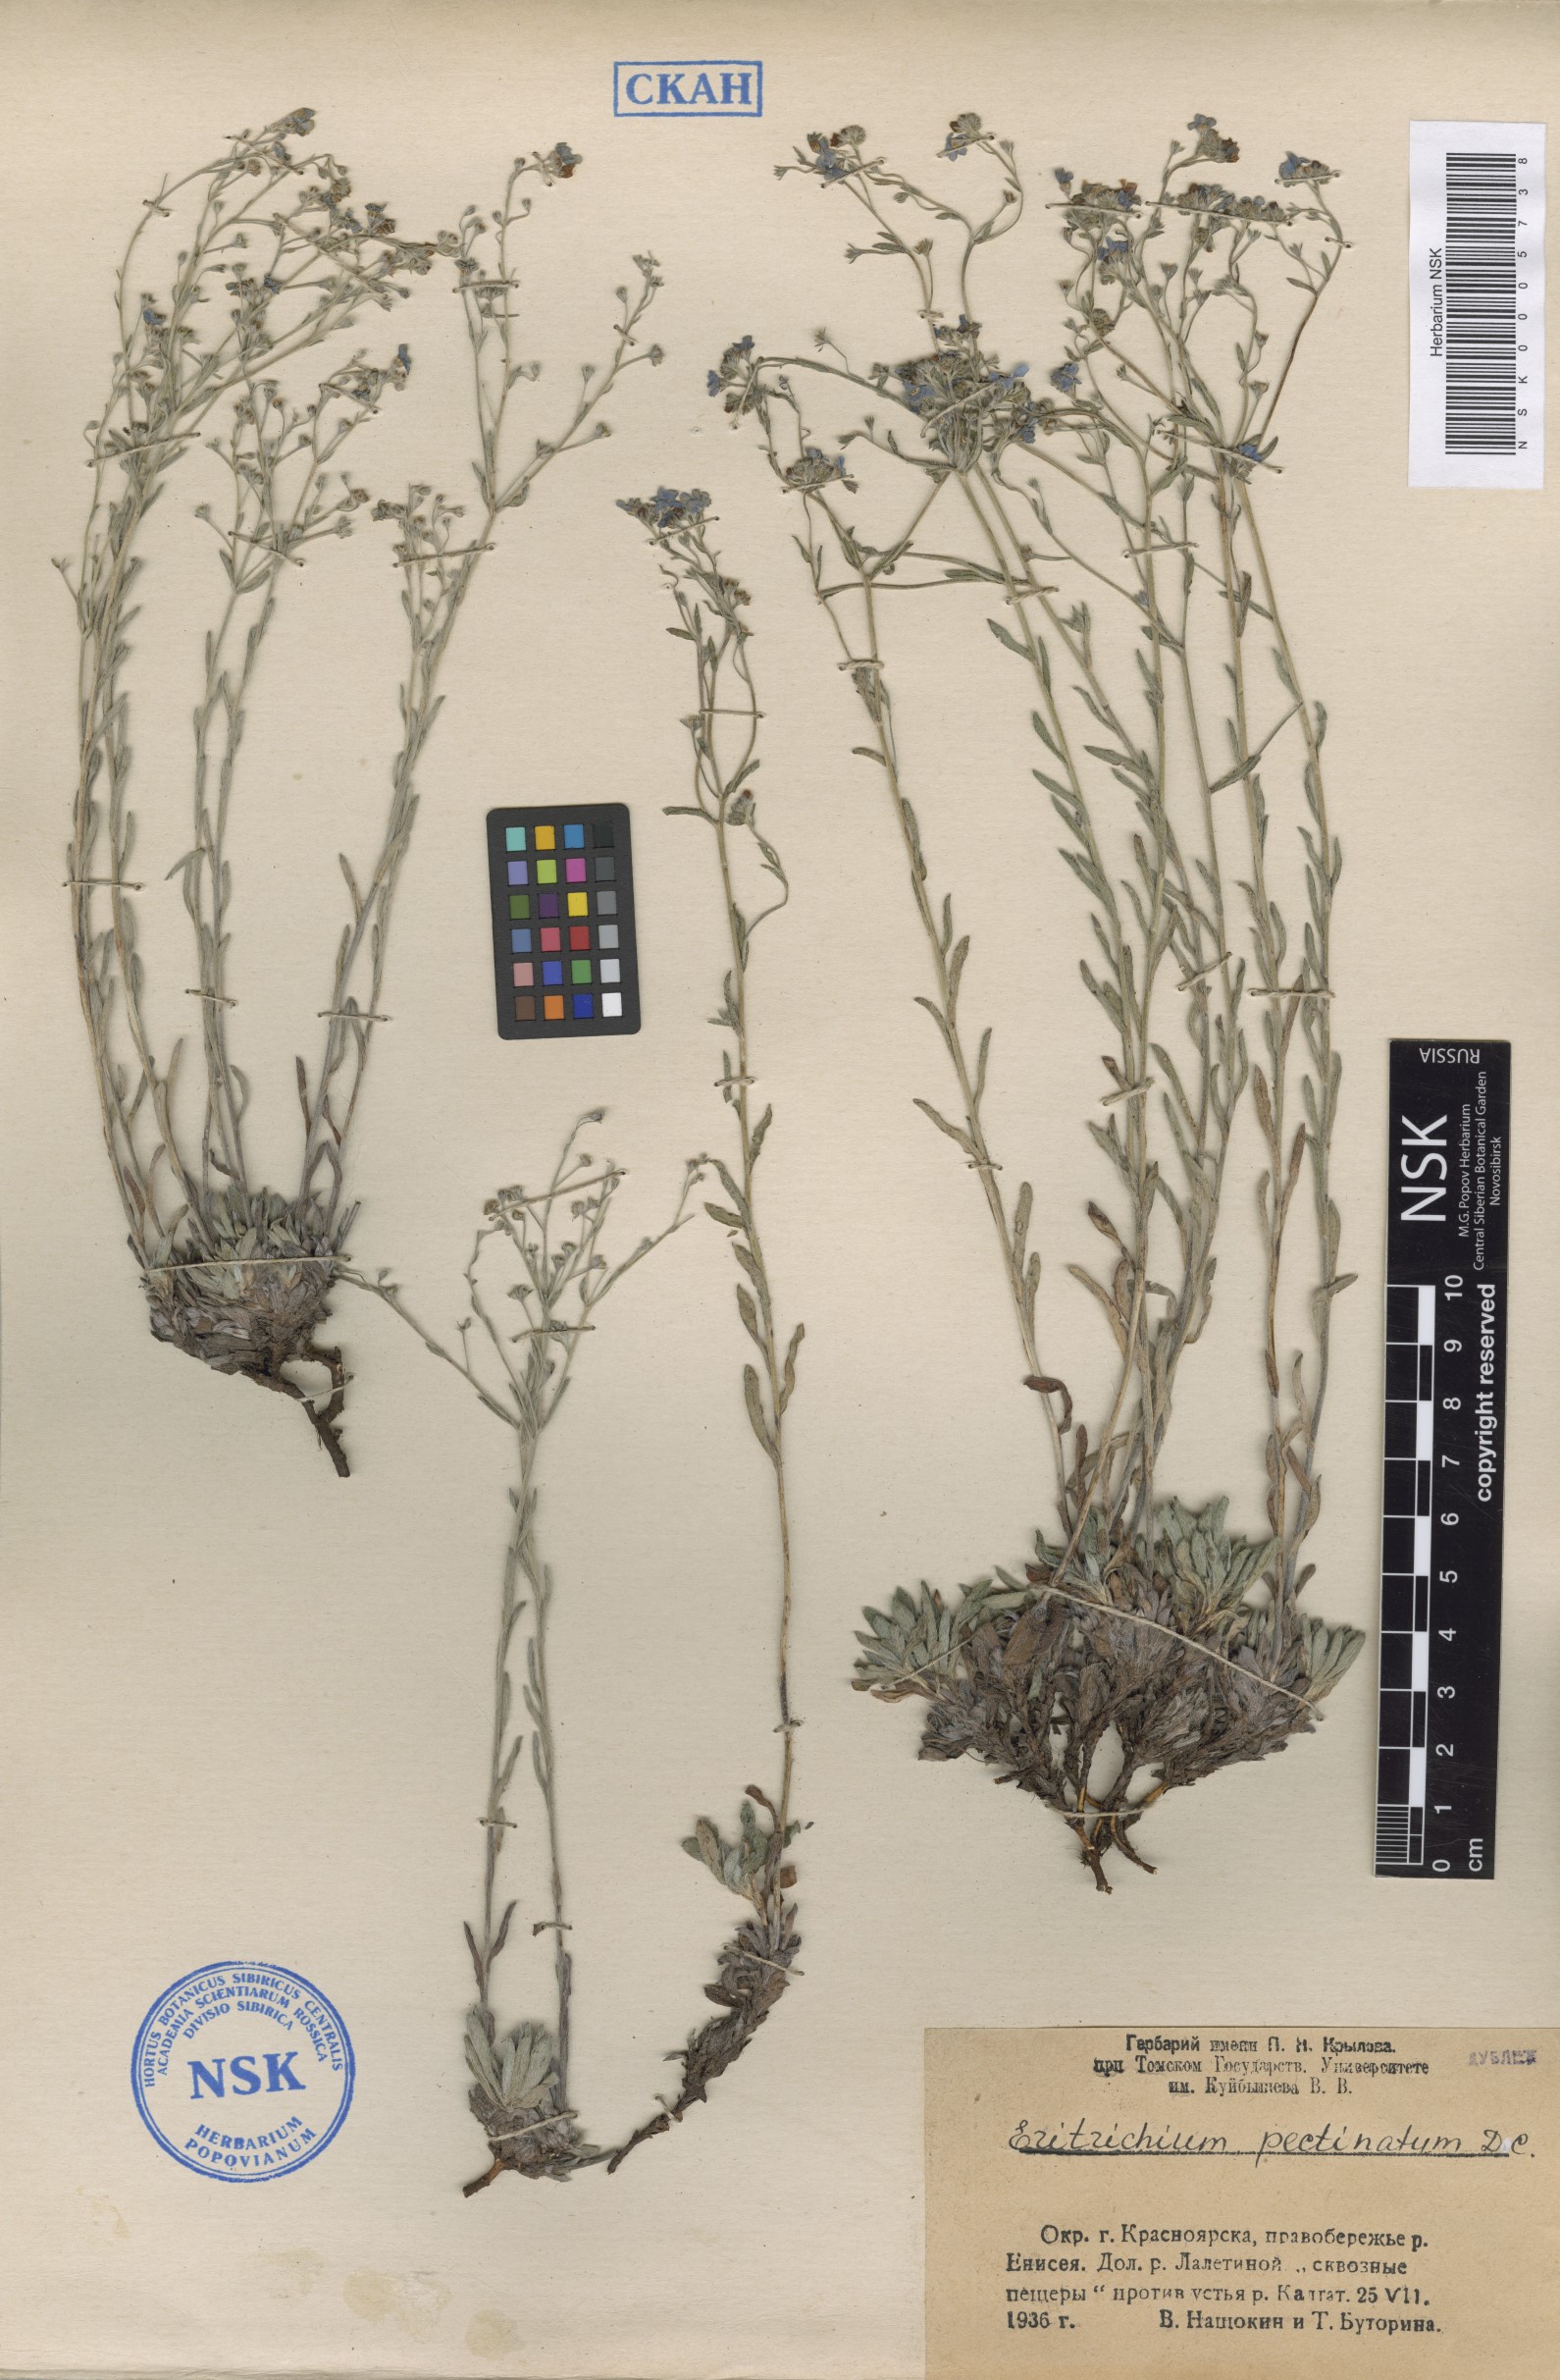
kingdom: Plantae
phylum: Tracheophyta
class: Magnoliopsida
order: Boraginales
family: Boraginaceae
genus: Eritrichium
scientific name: Eritrichium pectinatum
